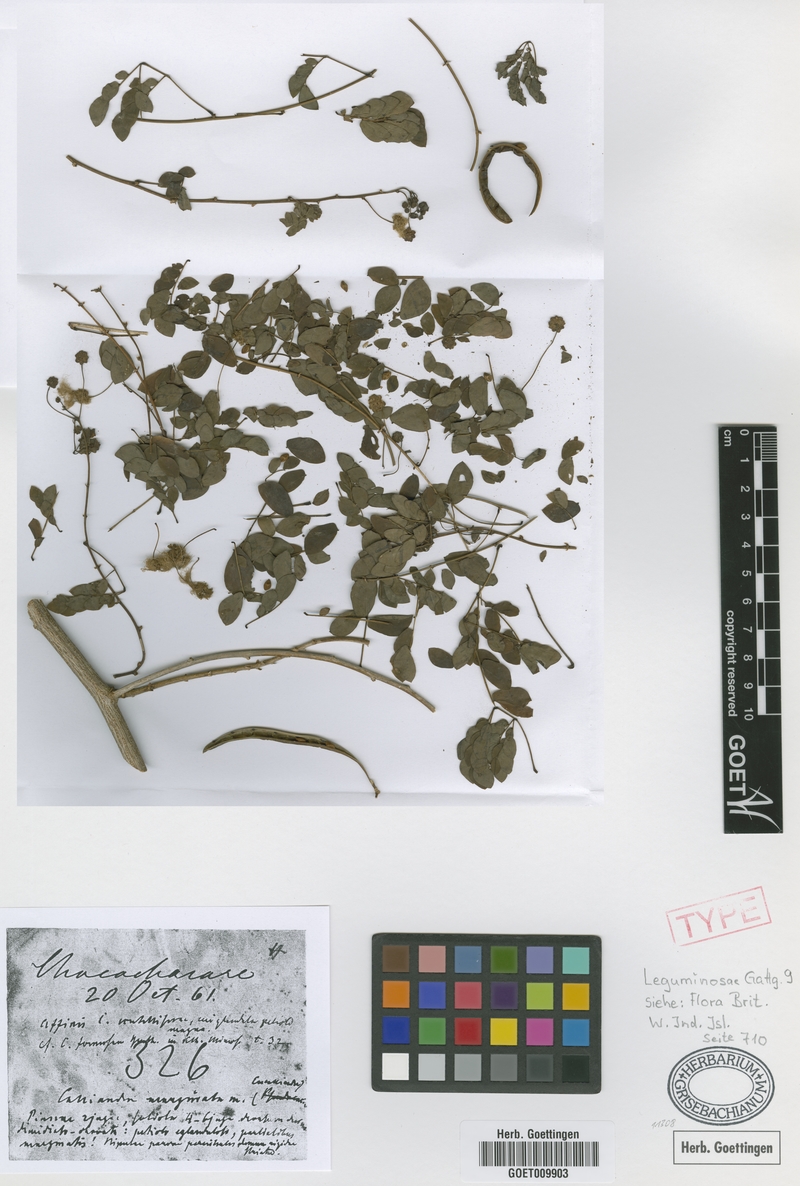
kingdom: Plantae
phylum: Tracheophyta
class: Magnoliopsida
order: Fabales
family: Fabaceae
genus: Zapoteca
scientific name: Zapoteca formosa
